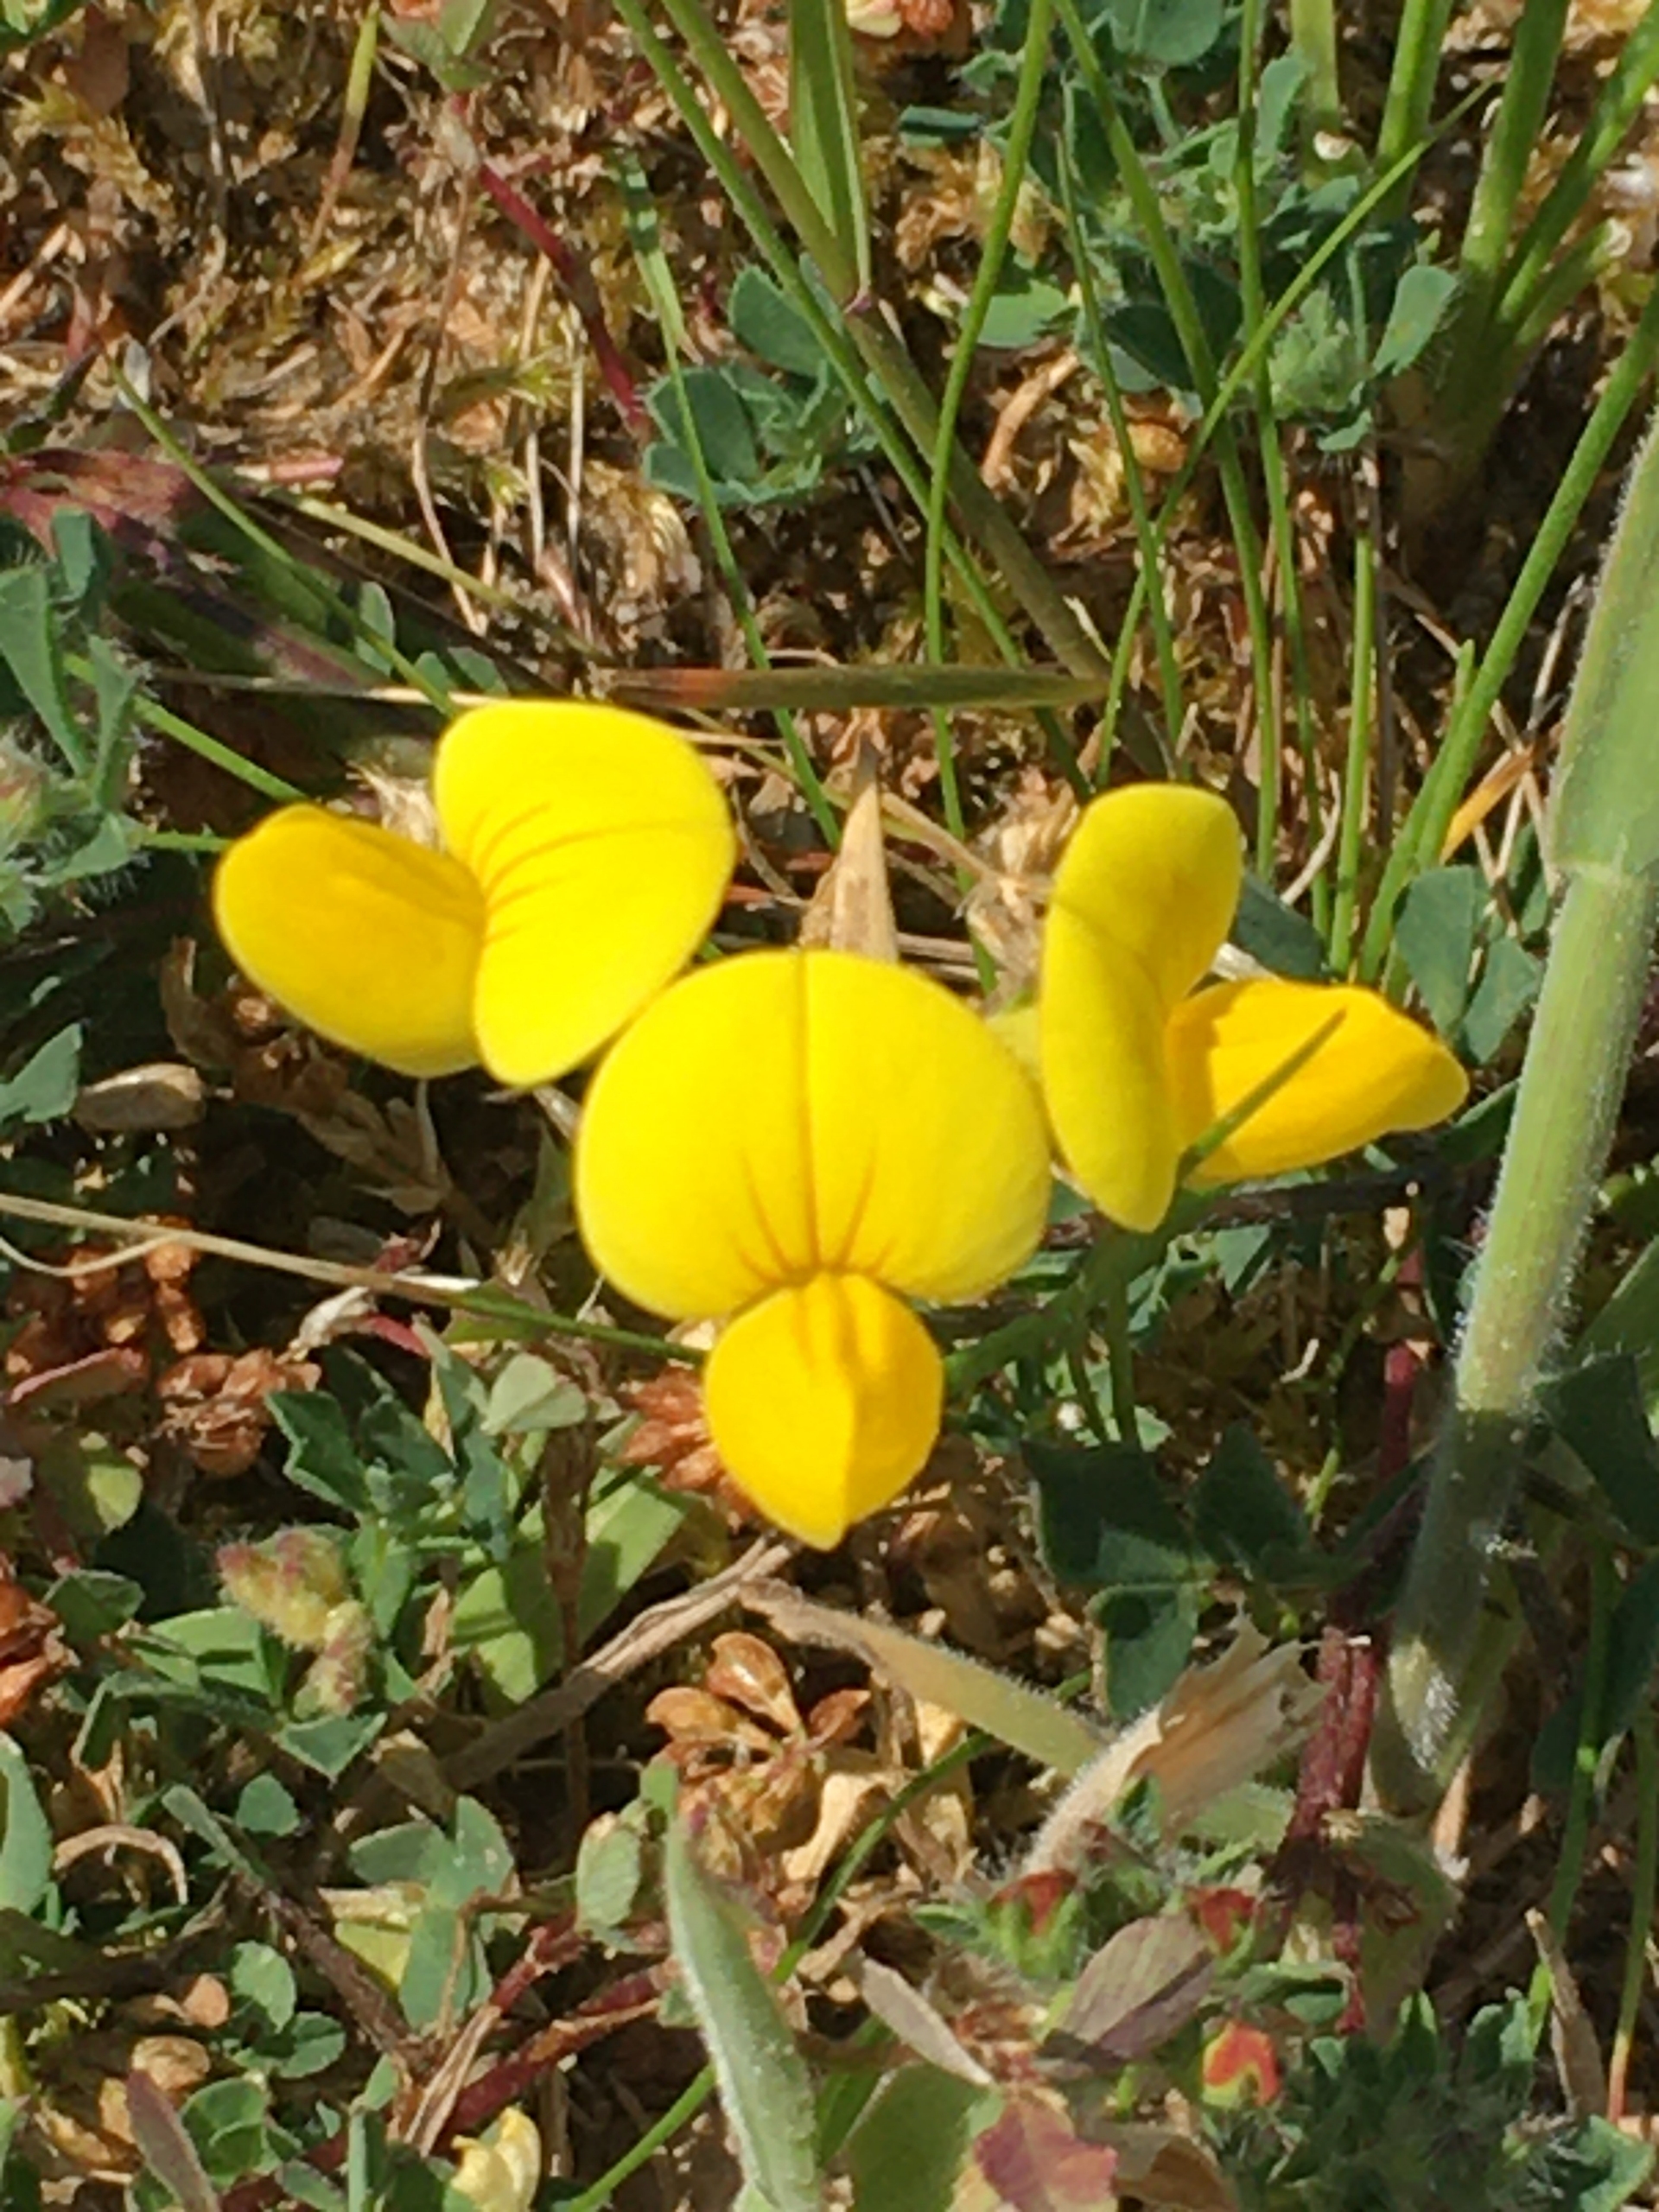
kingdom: Plantae
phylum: Tracheophyta
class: Magnoliopsida
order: Fabales
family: Fabaceae
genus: Lotus
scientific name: Lotus corniculatus
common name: Almindelig kællingetand
